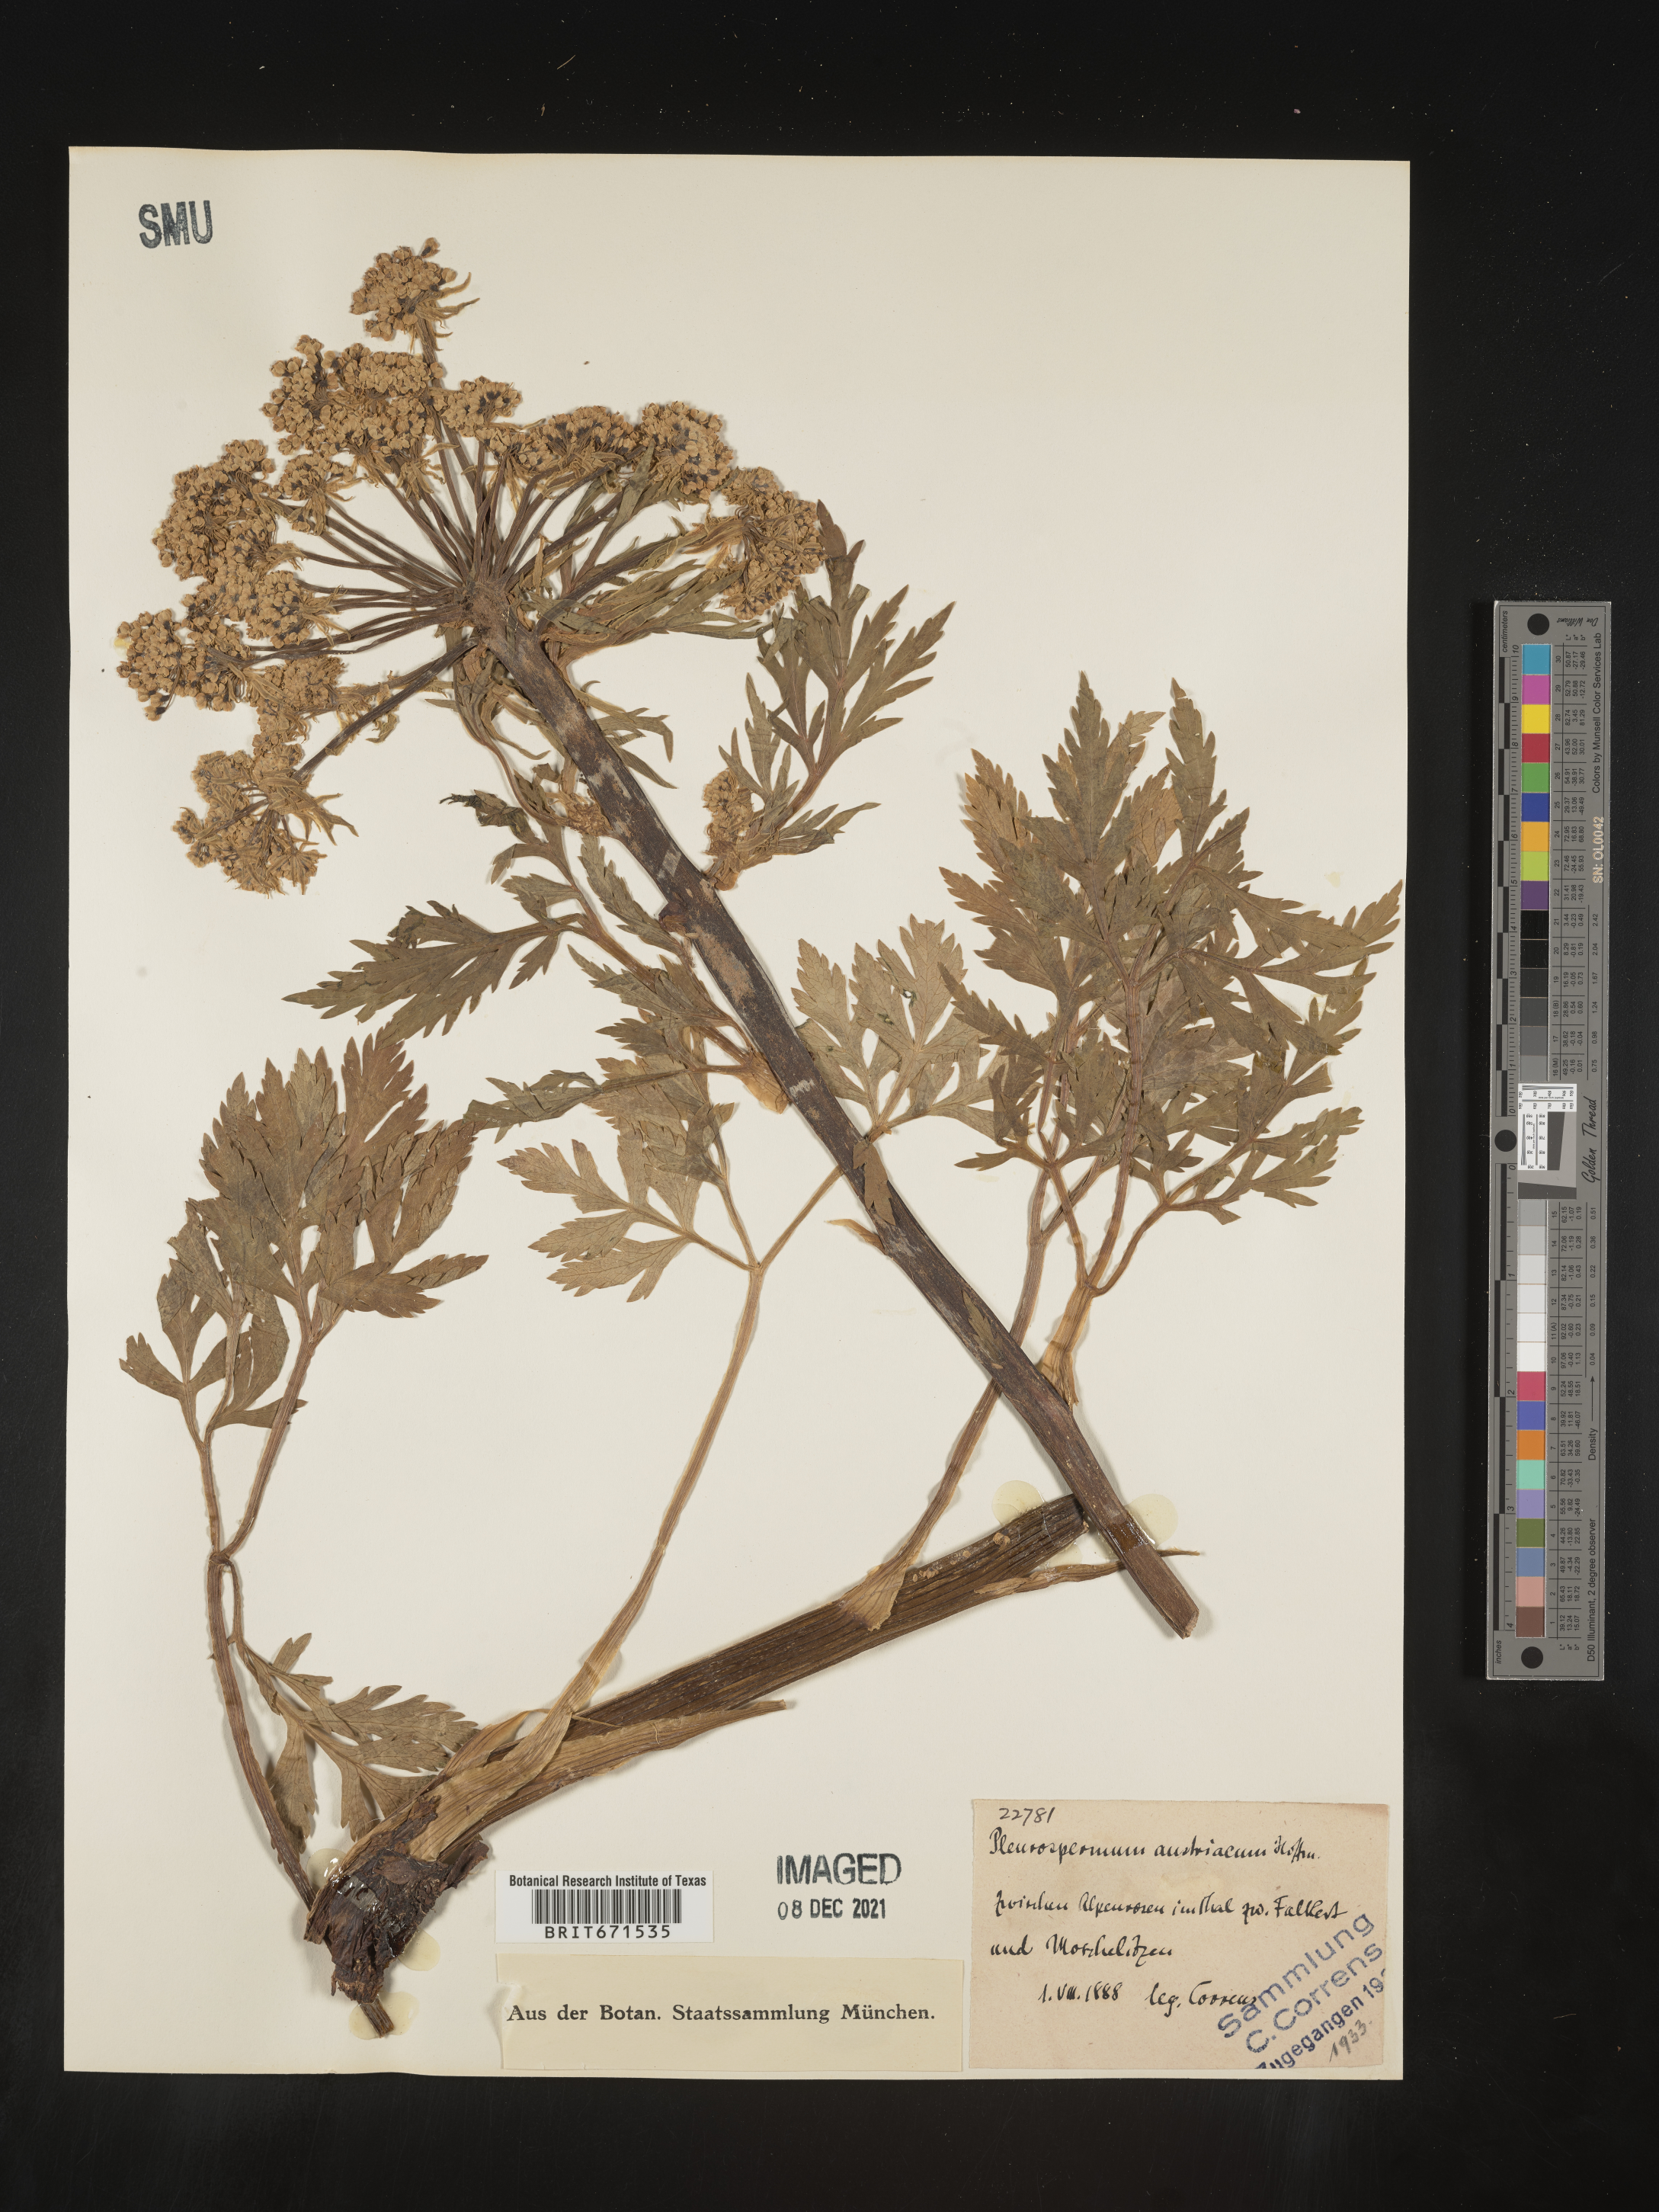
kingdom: Plantae
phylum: Tracheophyta
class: Magnoliopsida
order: Apiales
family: Apiaceae
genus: Pleurospermum
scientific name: Pleurospermum
